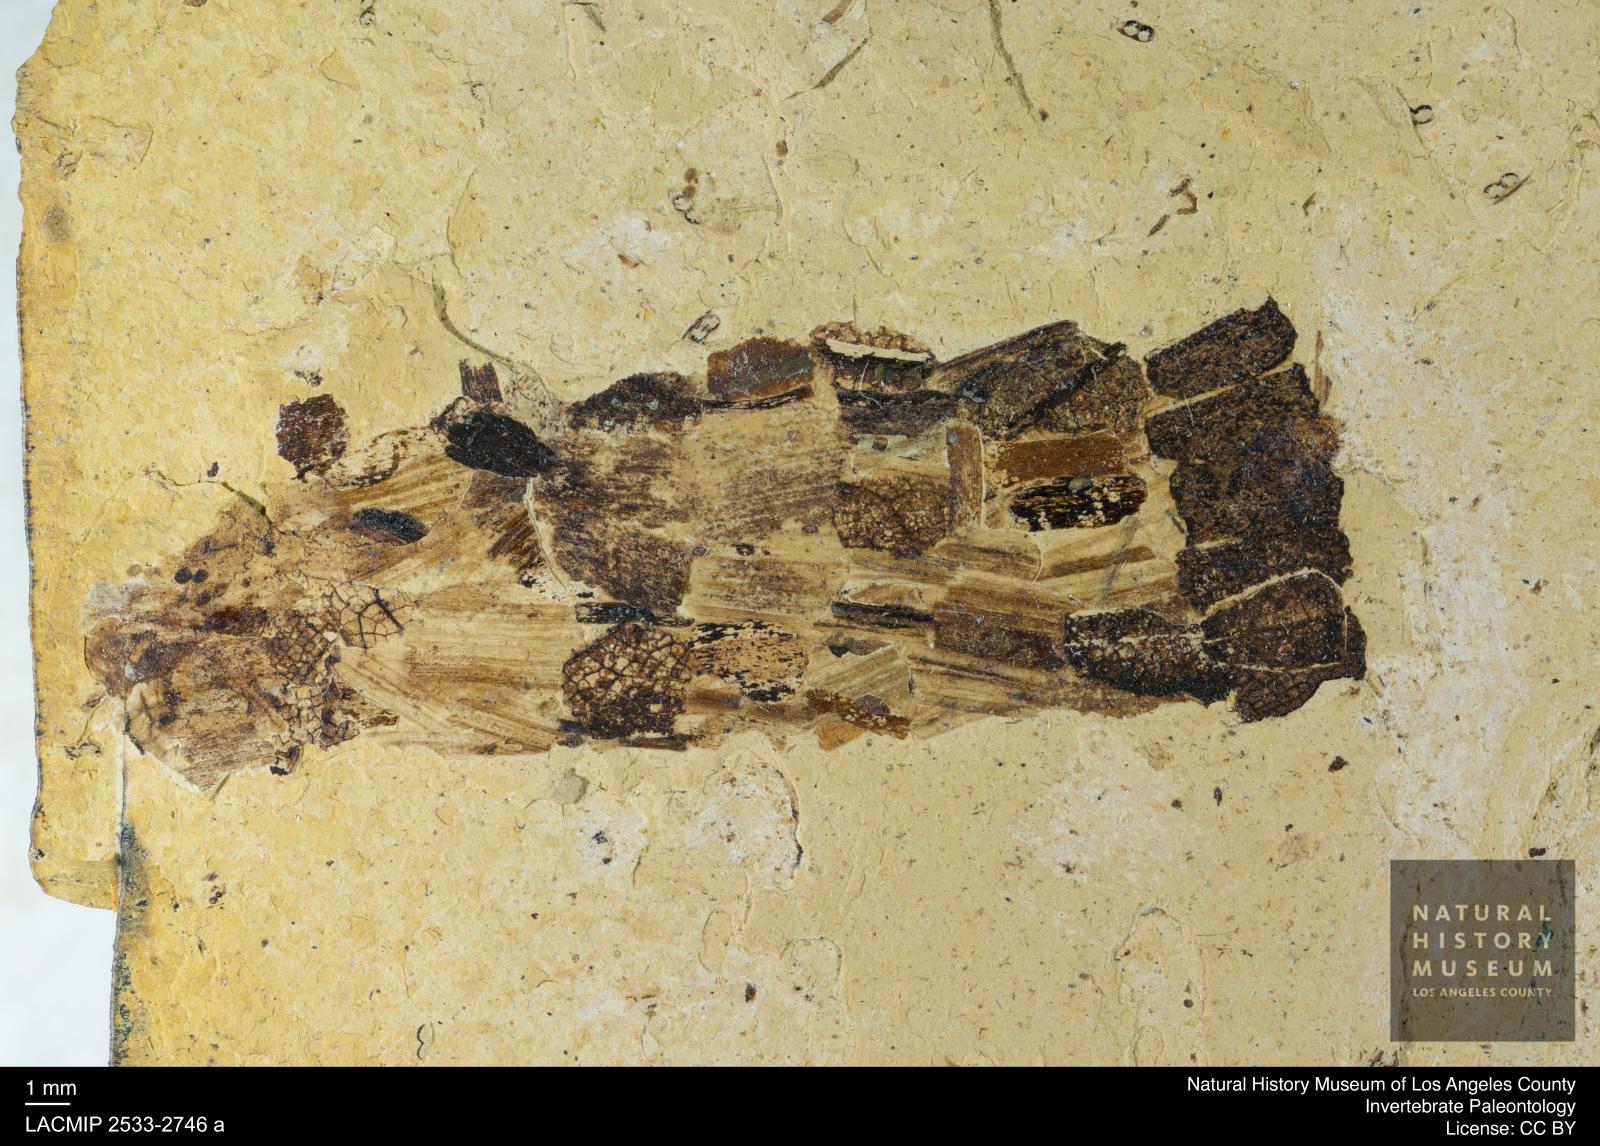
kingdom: Animalia
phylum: Arthropoda
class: Insecta
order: Trichoptera
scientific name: Trichoptera
